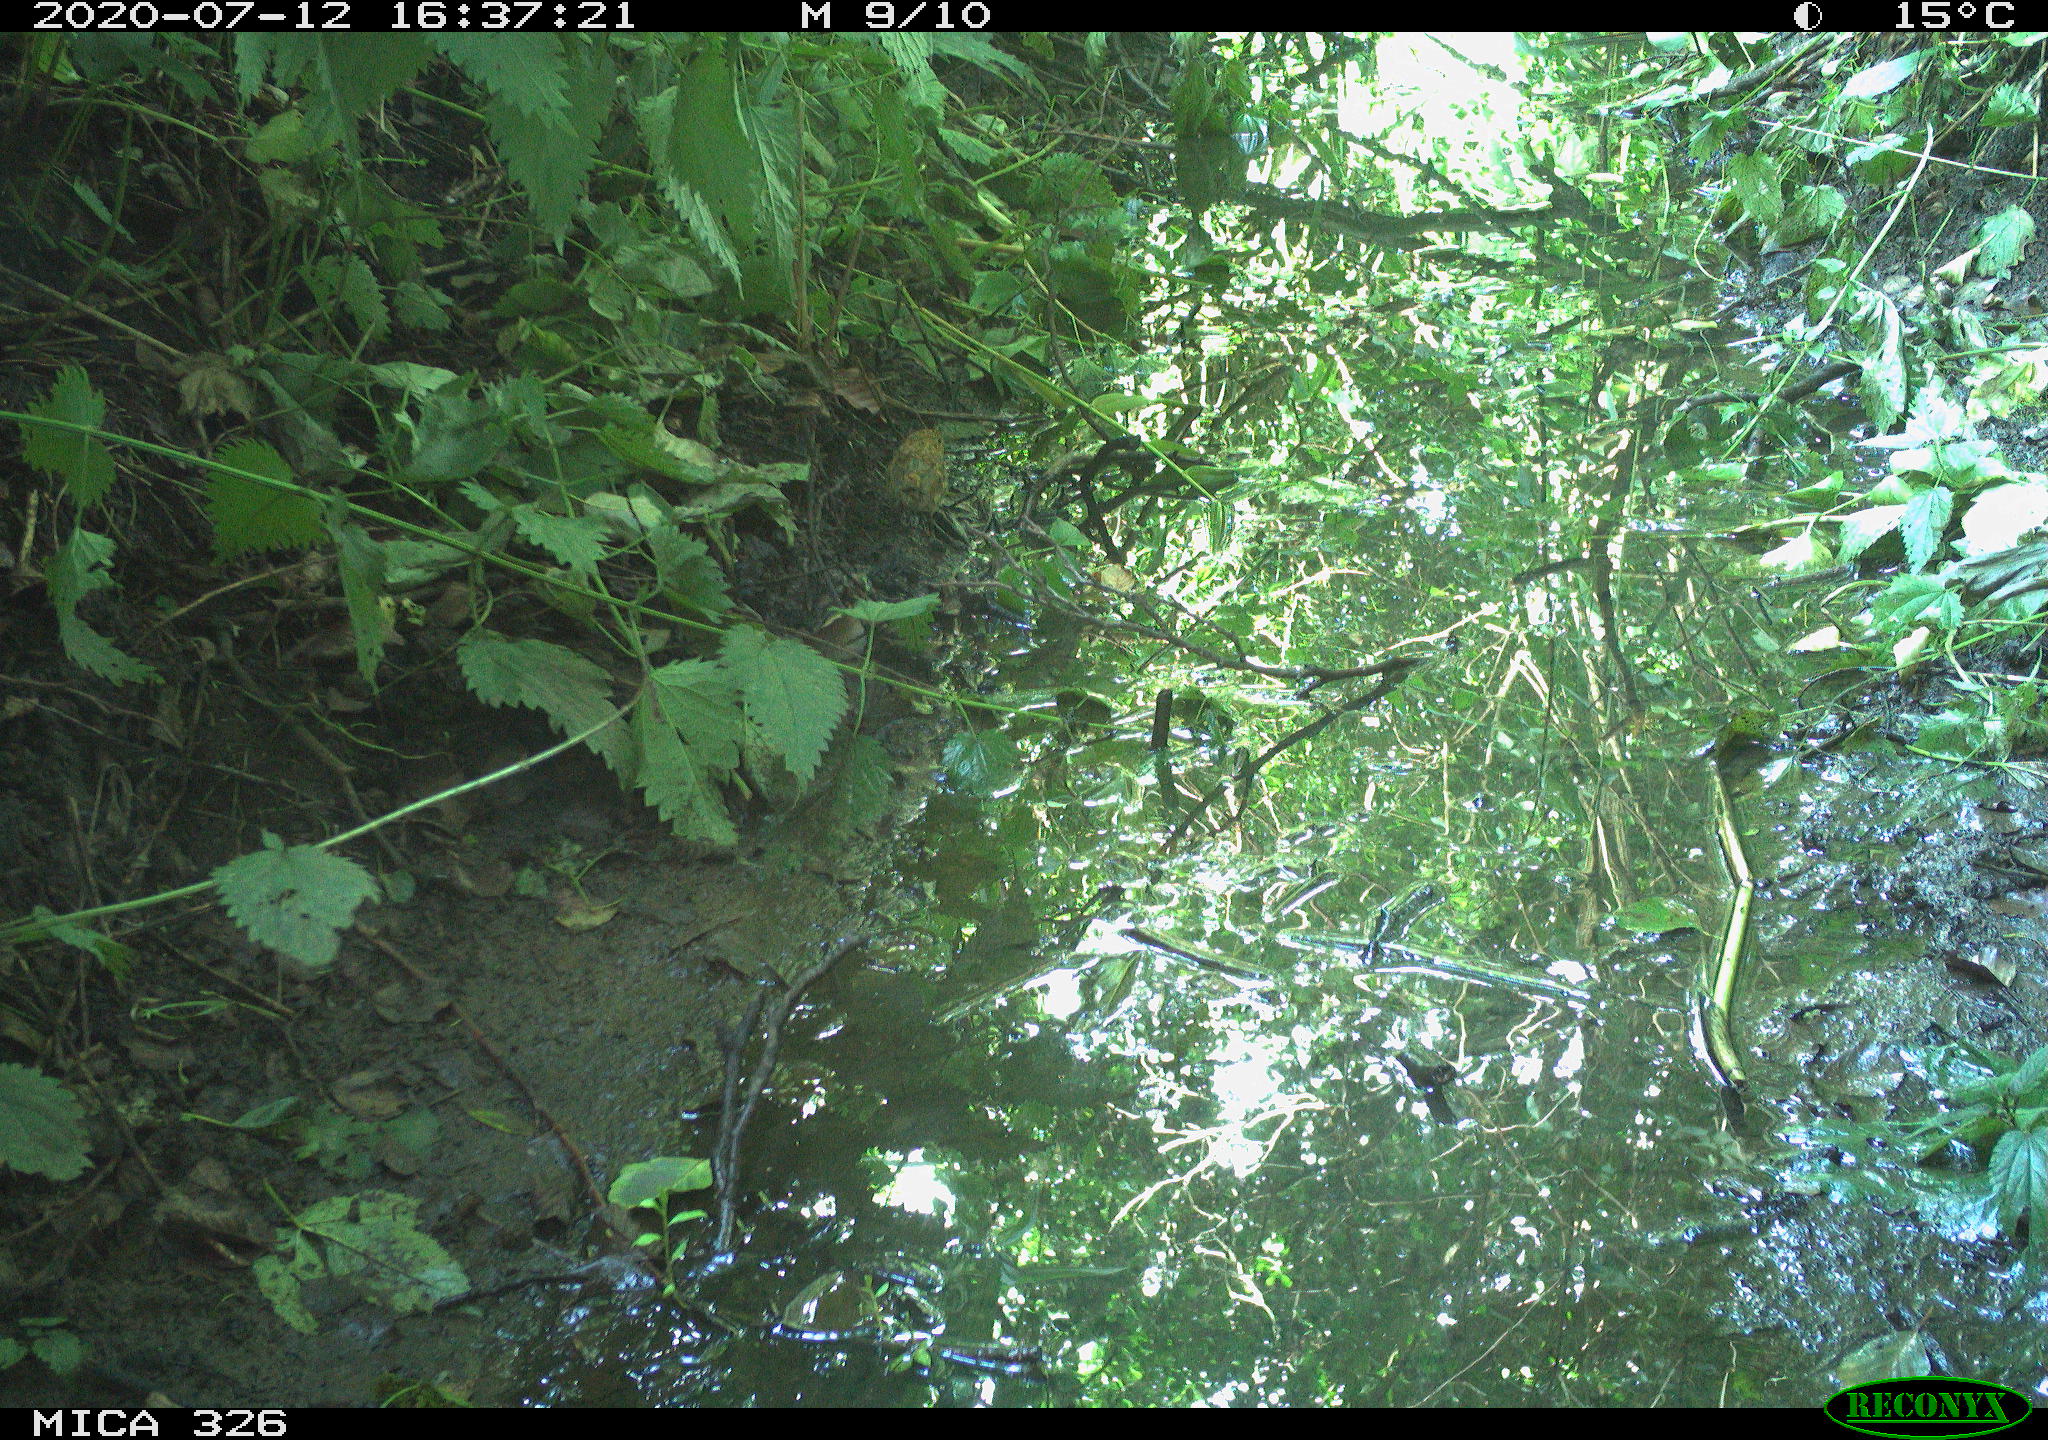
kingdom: Animalia
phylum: Chordata
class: Aves
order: Passeriformes
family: Turdidae
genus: Turdus
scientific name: Turdus philomelos
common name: Song thrush
